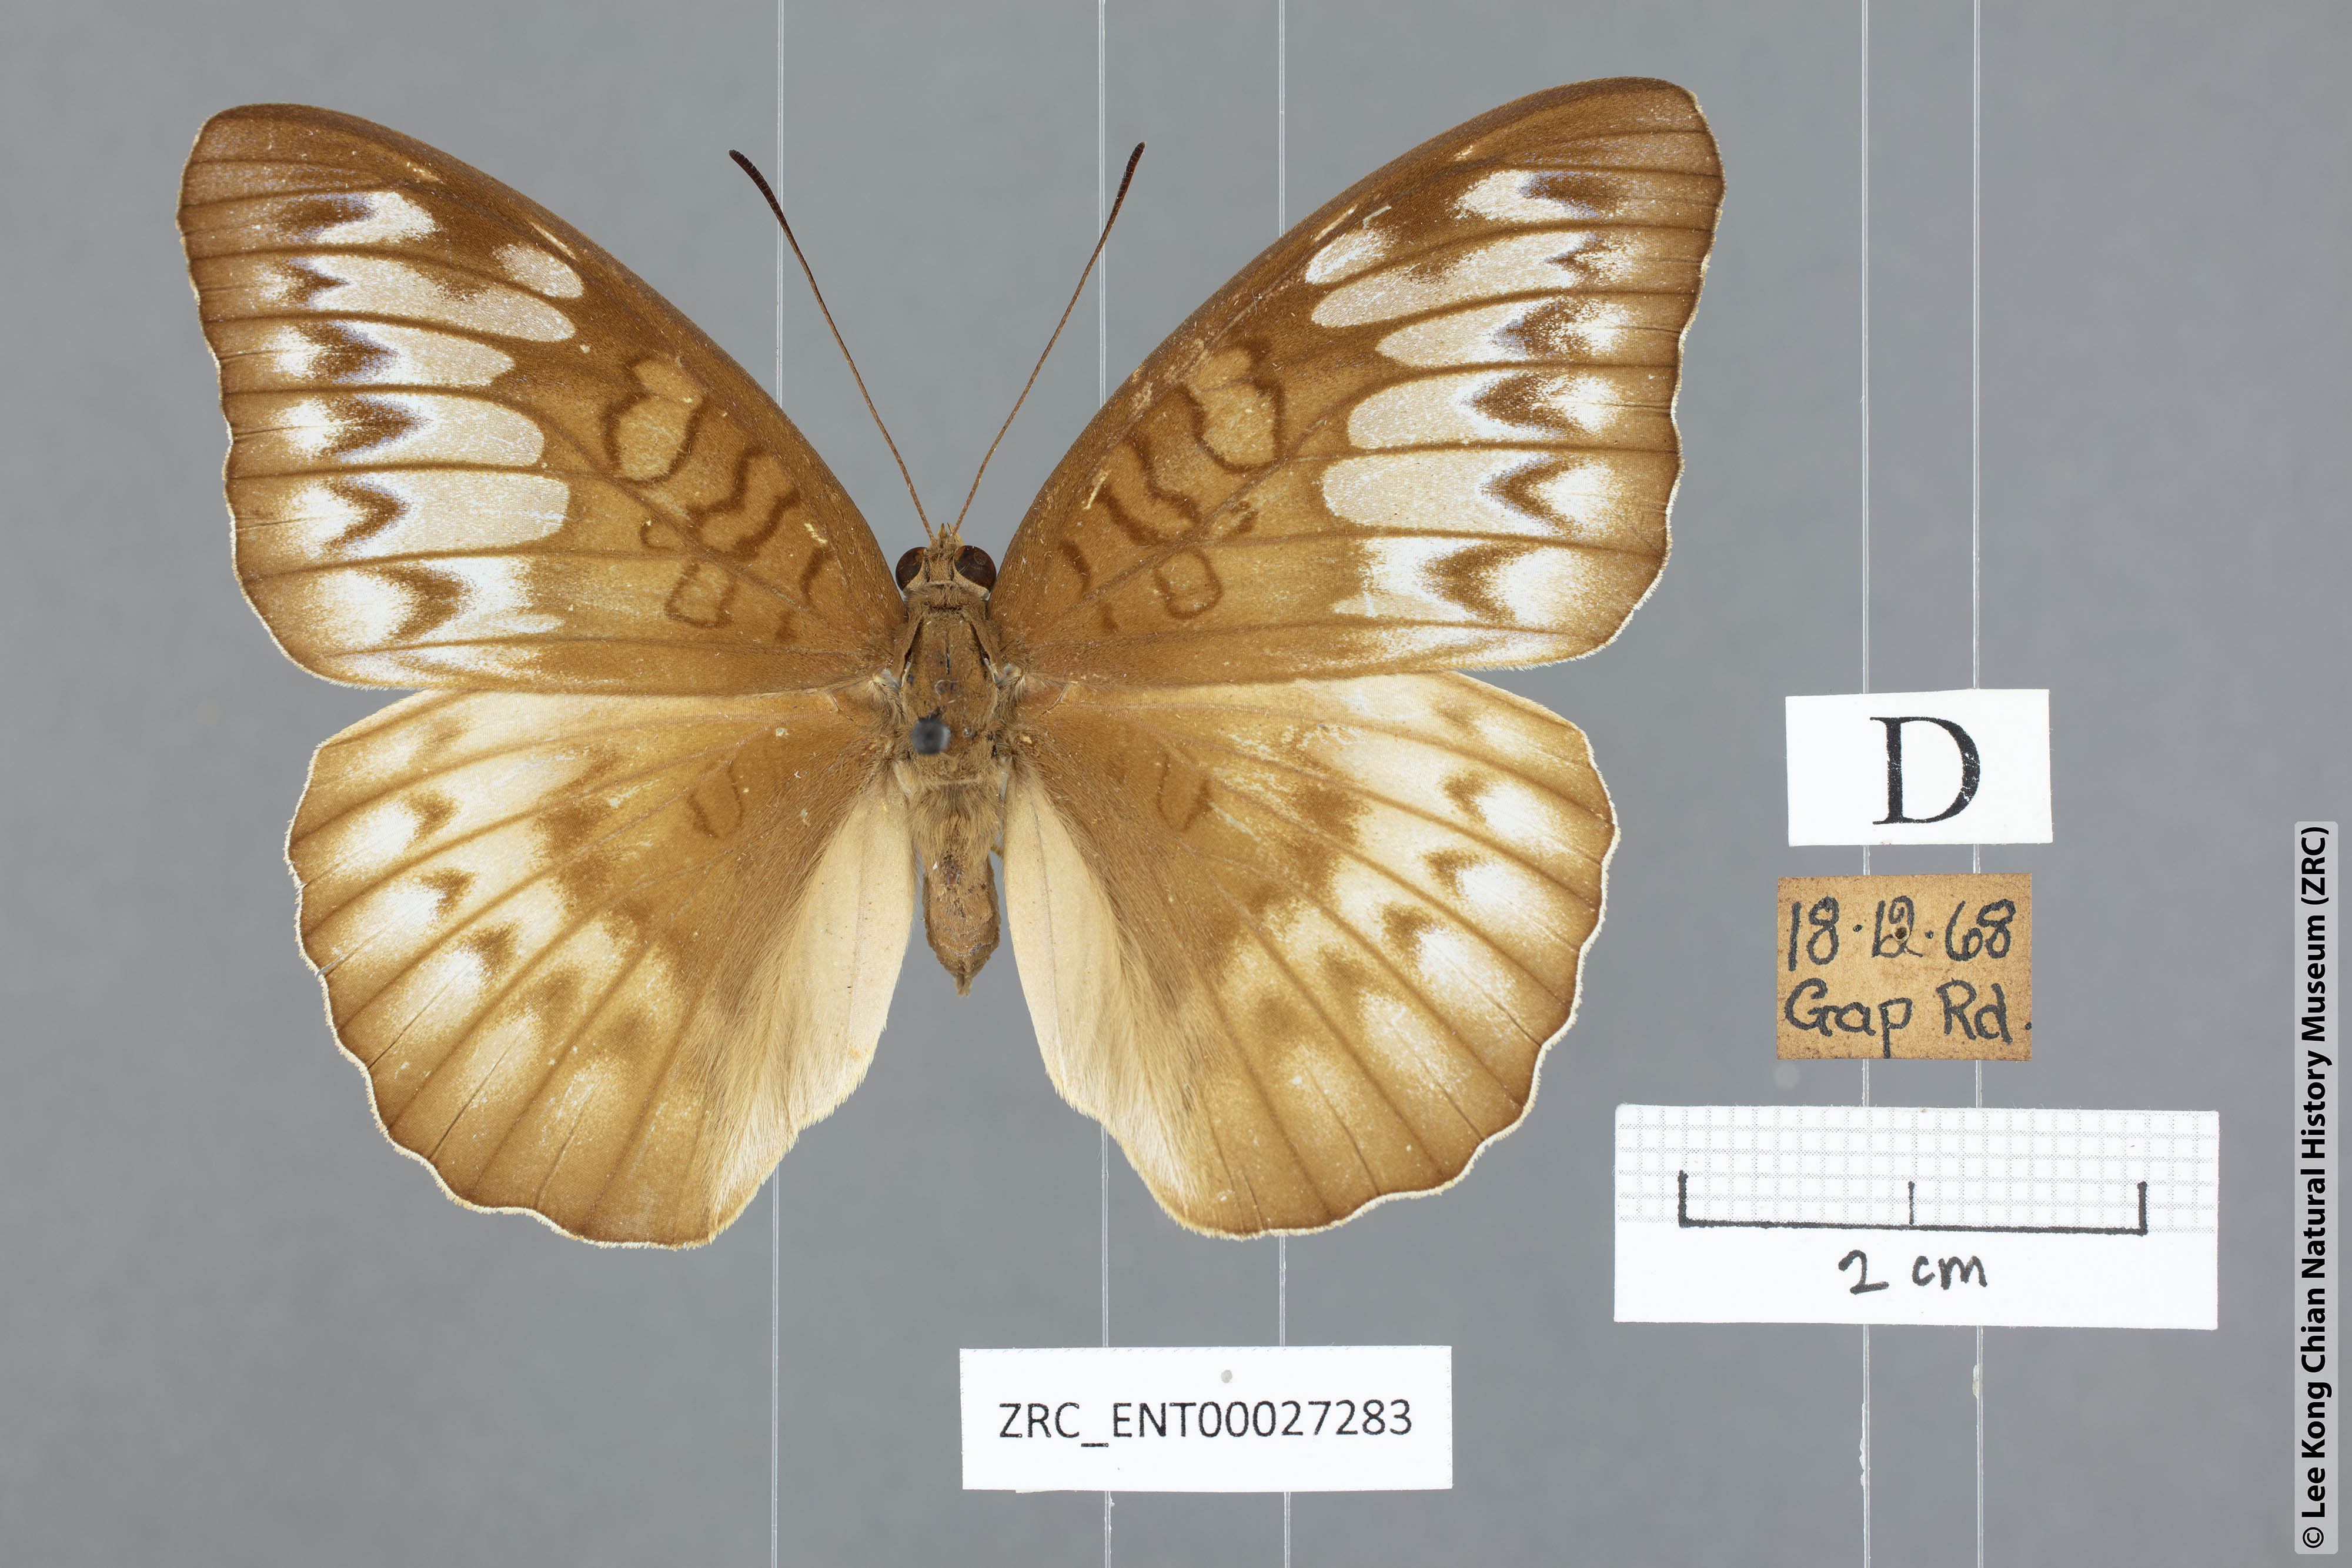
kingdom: Animalia
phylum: Arthropoda
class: Insecta
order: Lepidoptera
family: Nymphalidae
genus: Tanaecia
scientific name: Tanaecia iapis
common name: Horsfield's baron
